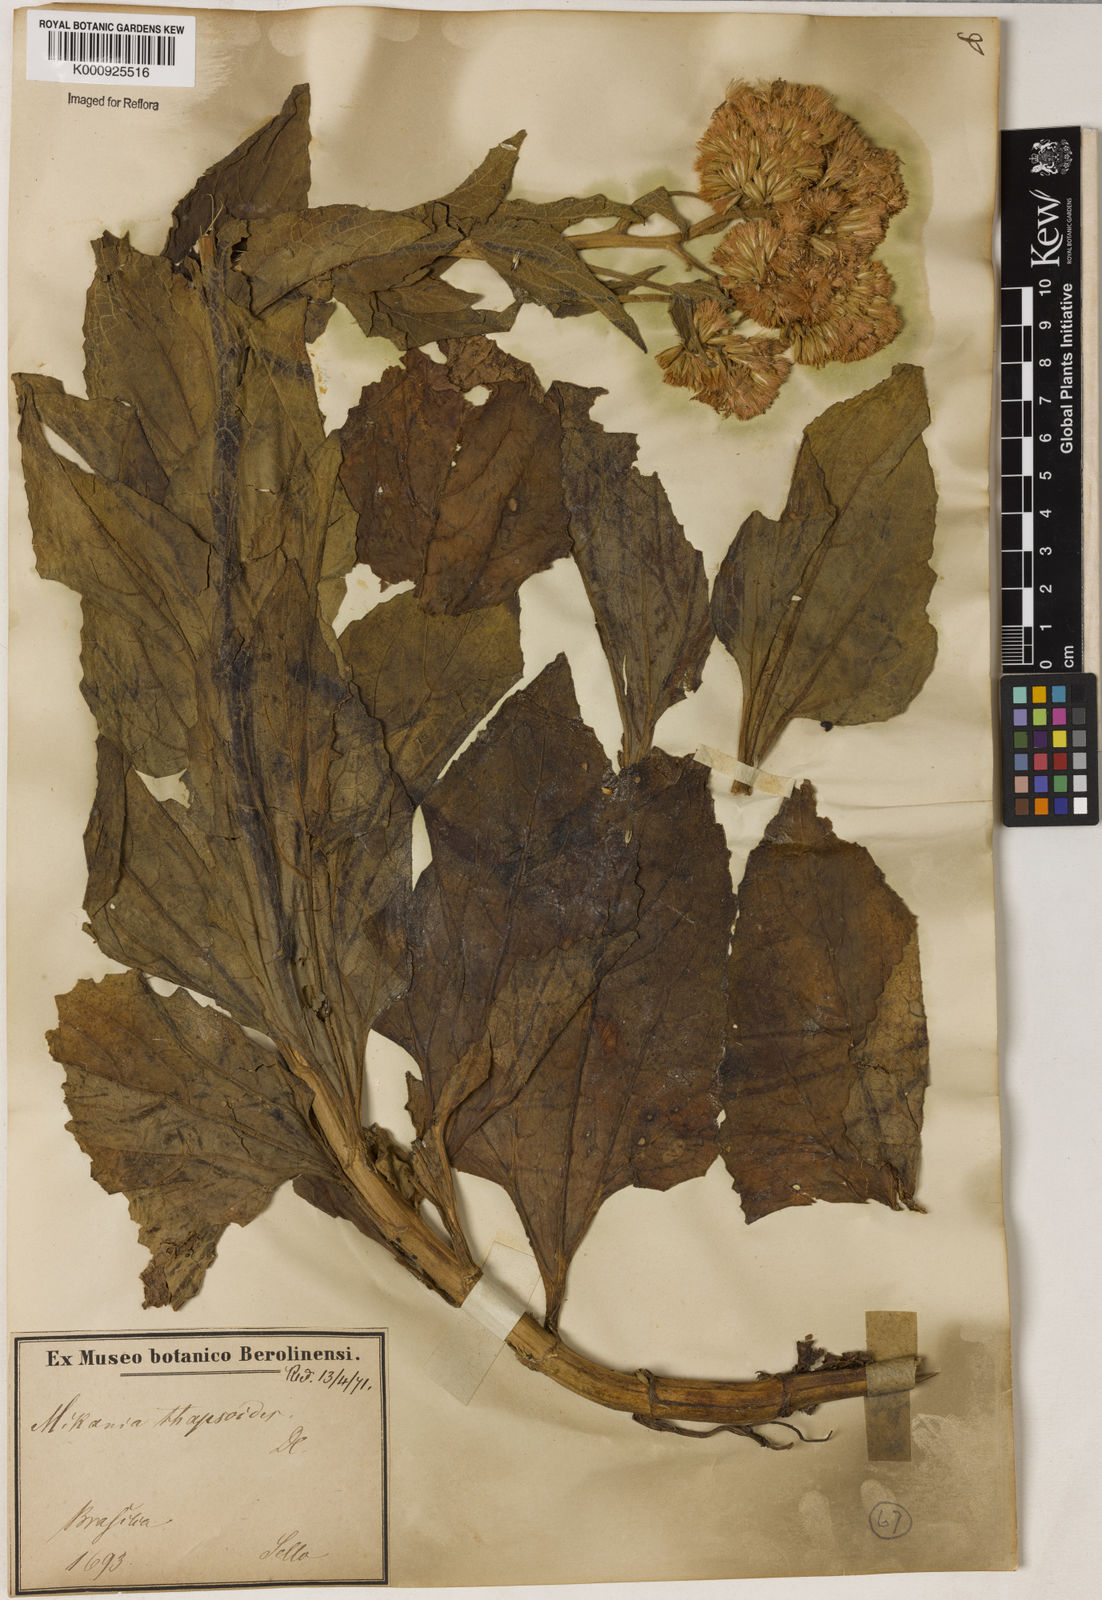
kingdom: Plantae
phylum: Tracheophyta
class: Magnoliopsida
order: Asterales
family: Asteraceae
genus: Mikania
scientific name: Mikania thapsoides
